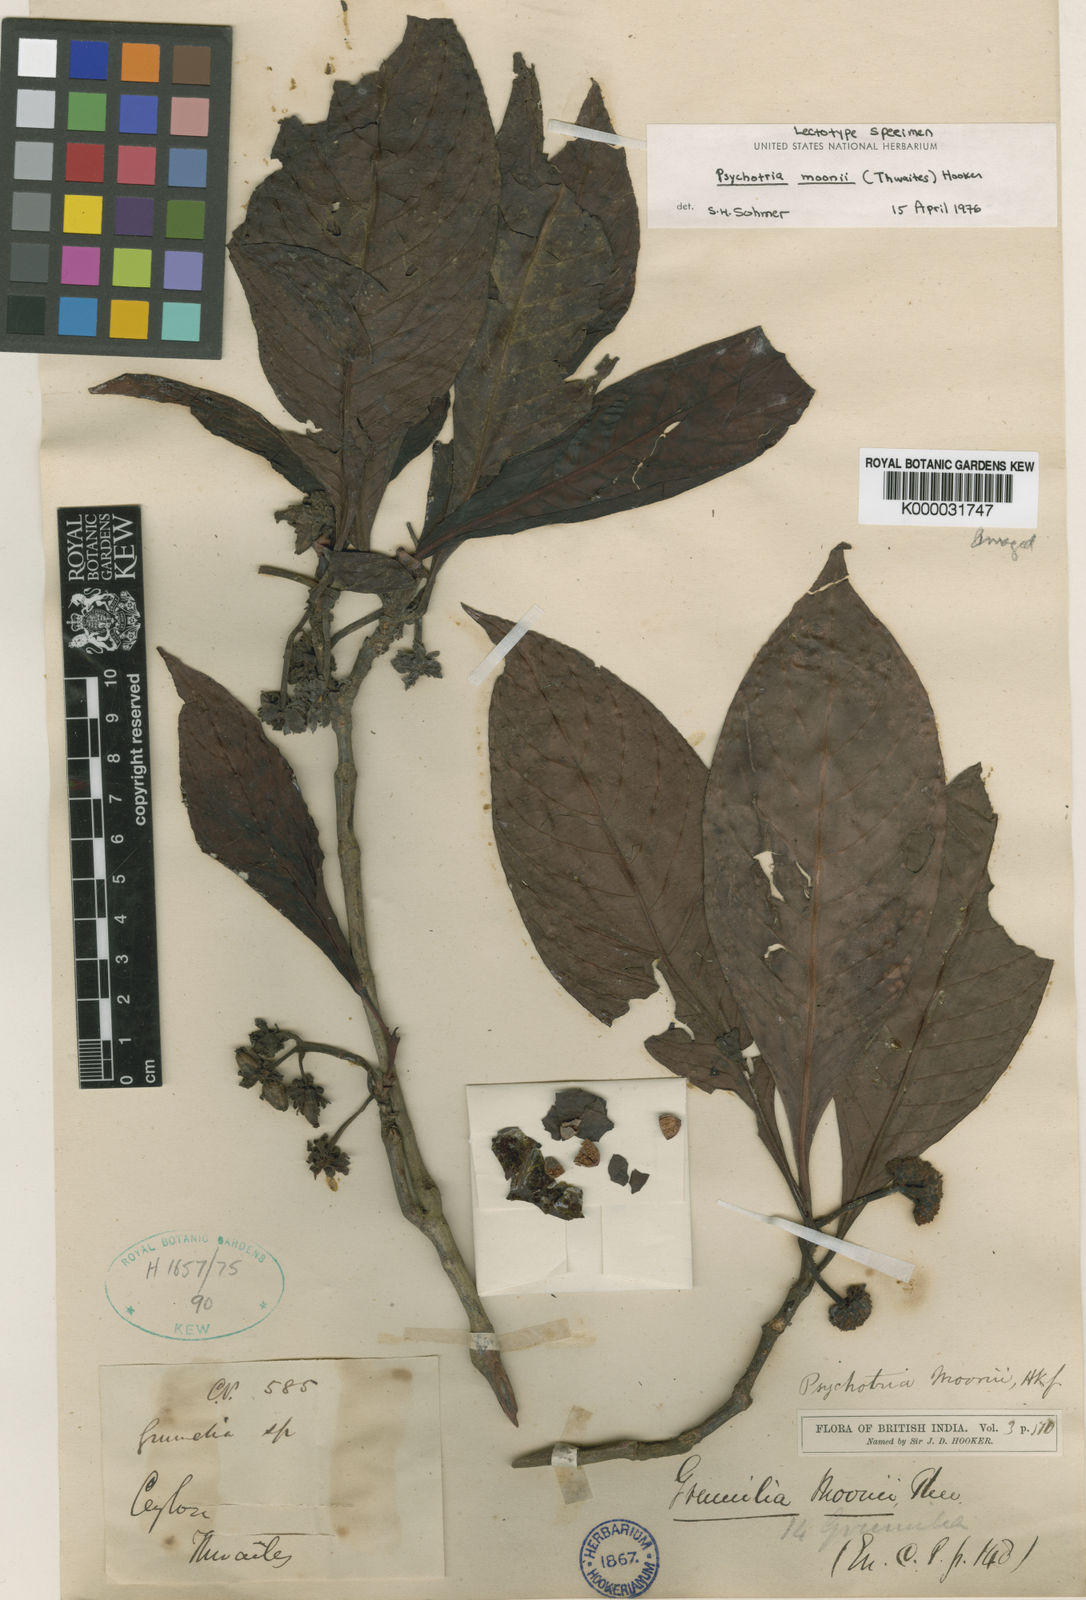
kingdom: Plantae
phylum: Tracheophyta
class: Magnoliopsida
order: Gentianales
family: Rubiaceae
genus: Psychotria
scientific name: Psychotria moonii
